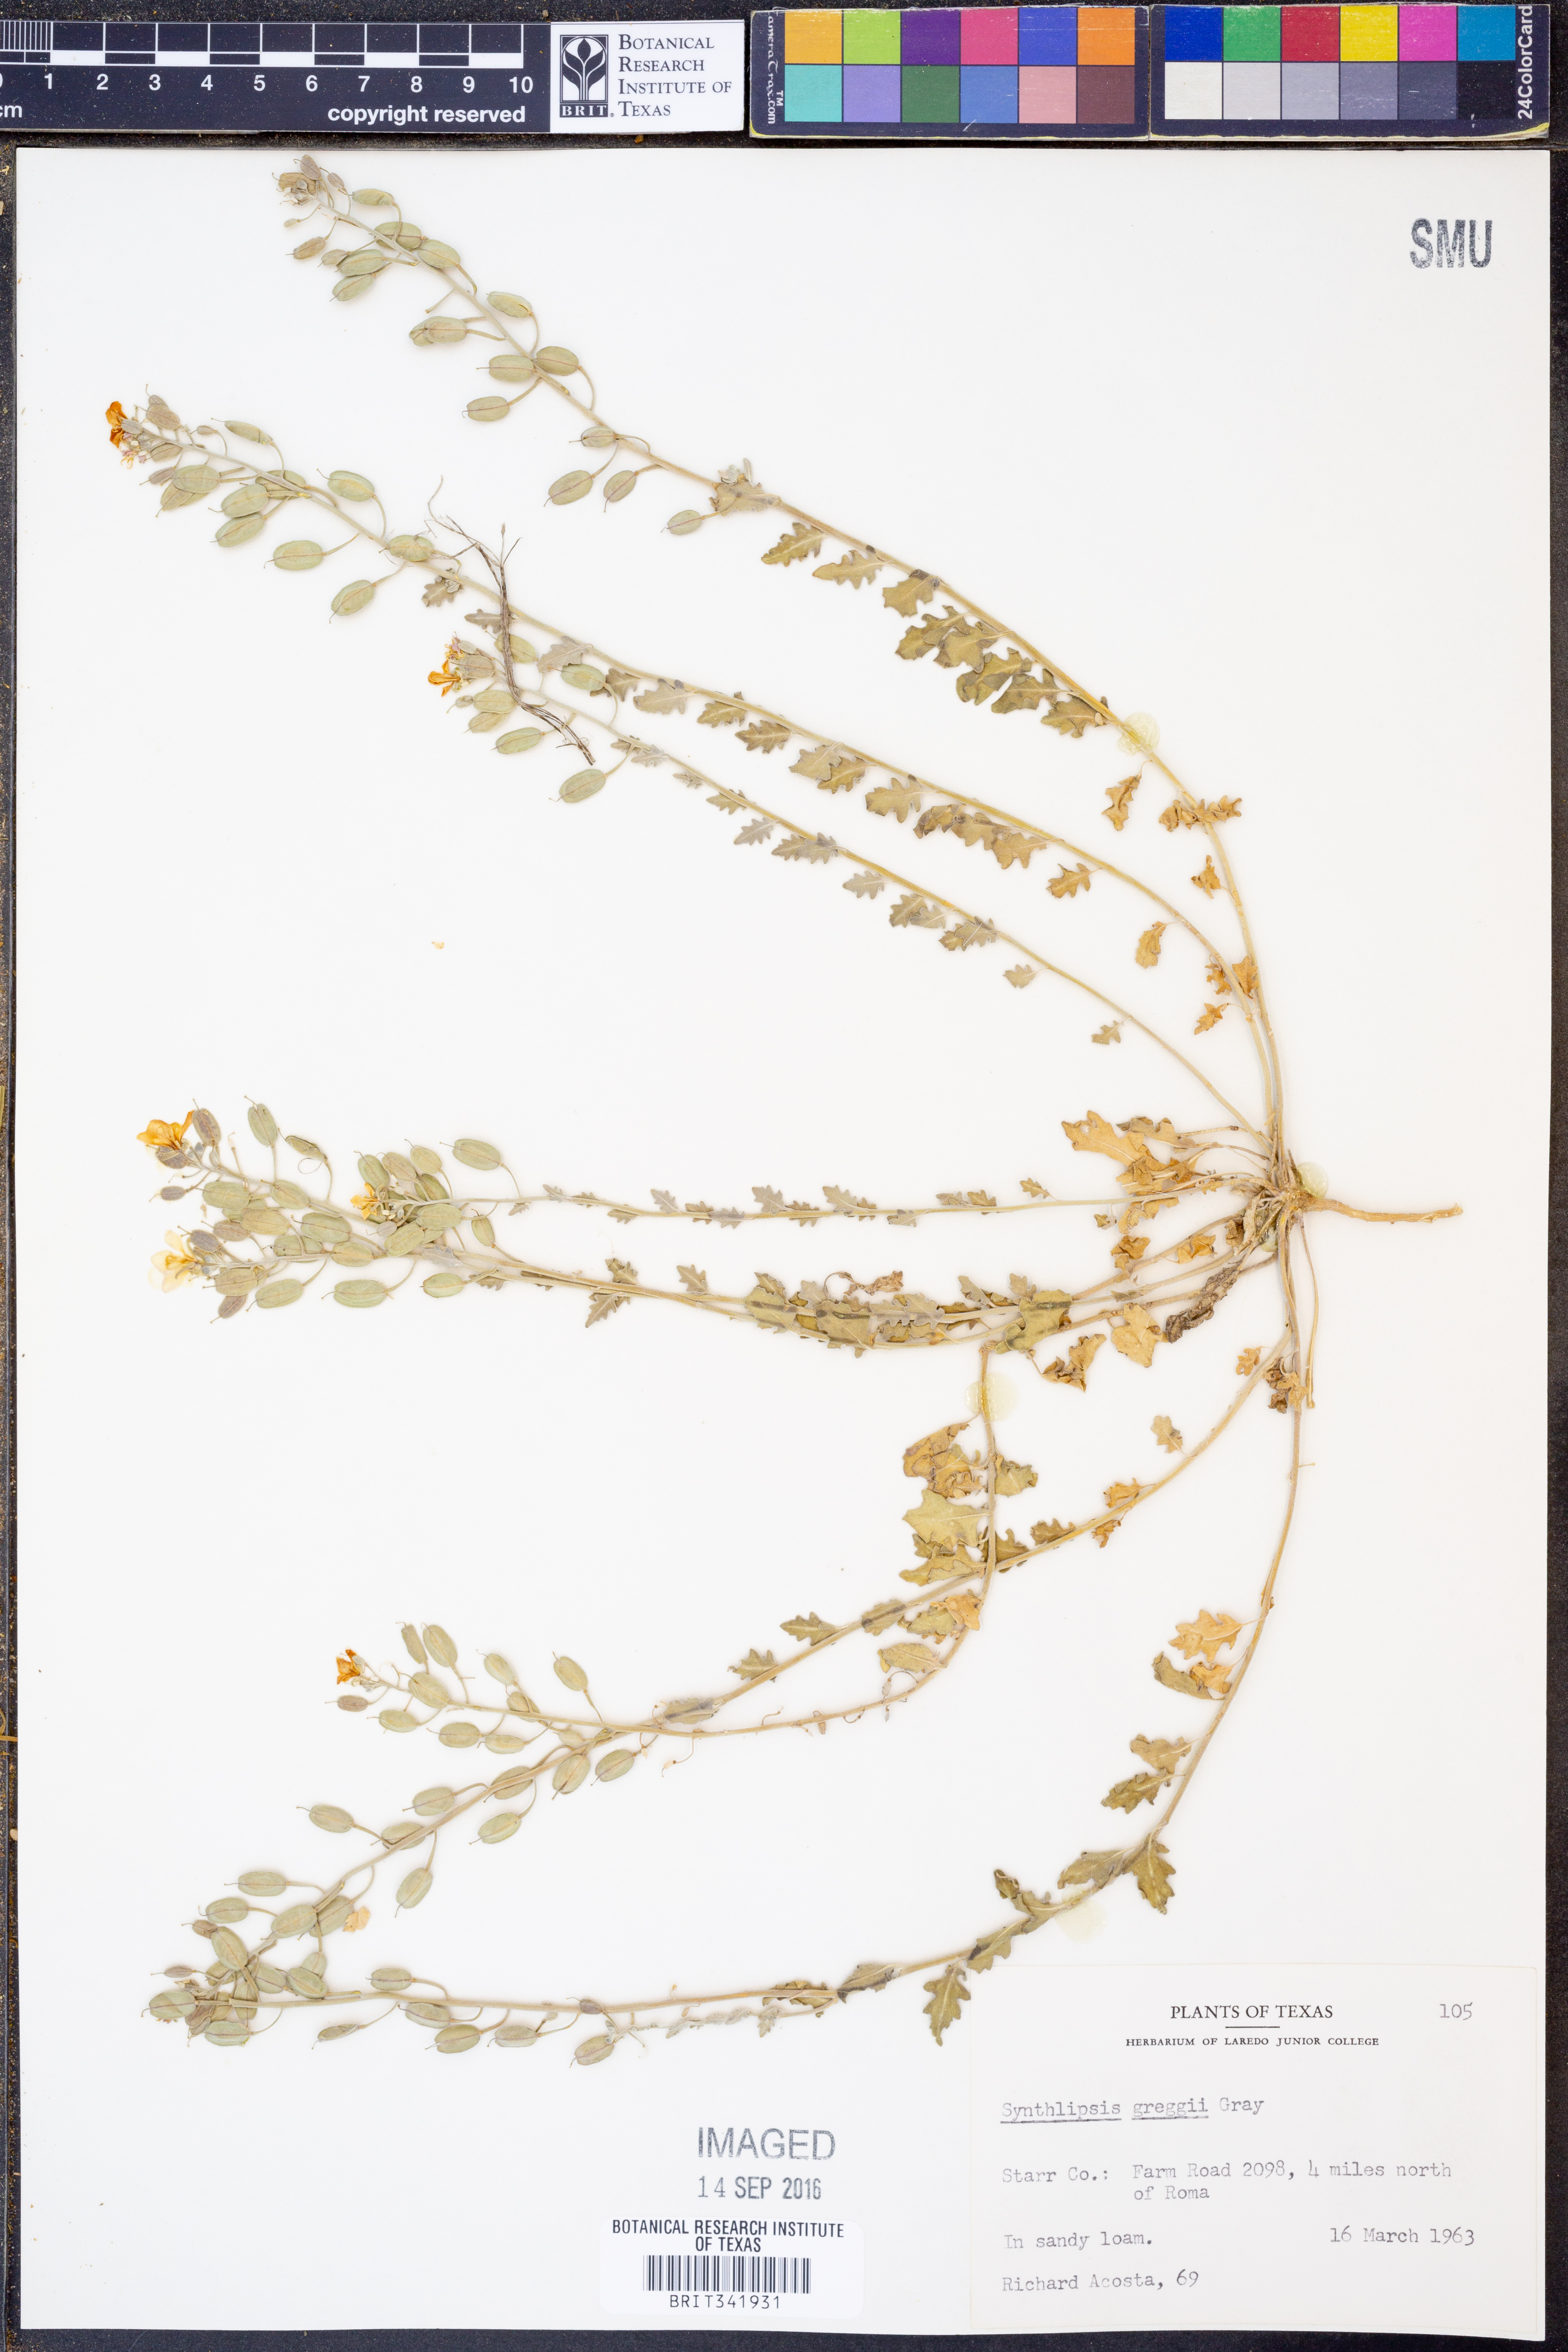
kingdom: Plantae
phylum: Tracheophyta
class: Magnoliopsida
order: Brassicales
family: Brassicaceae
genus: Synthlipsis
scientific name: Synthlipsis greggii
